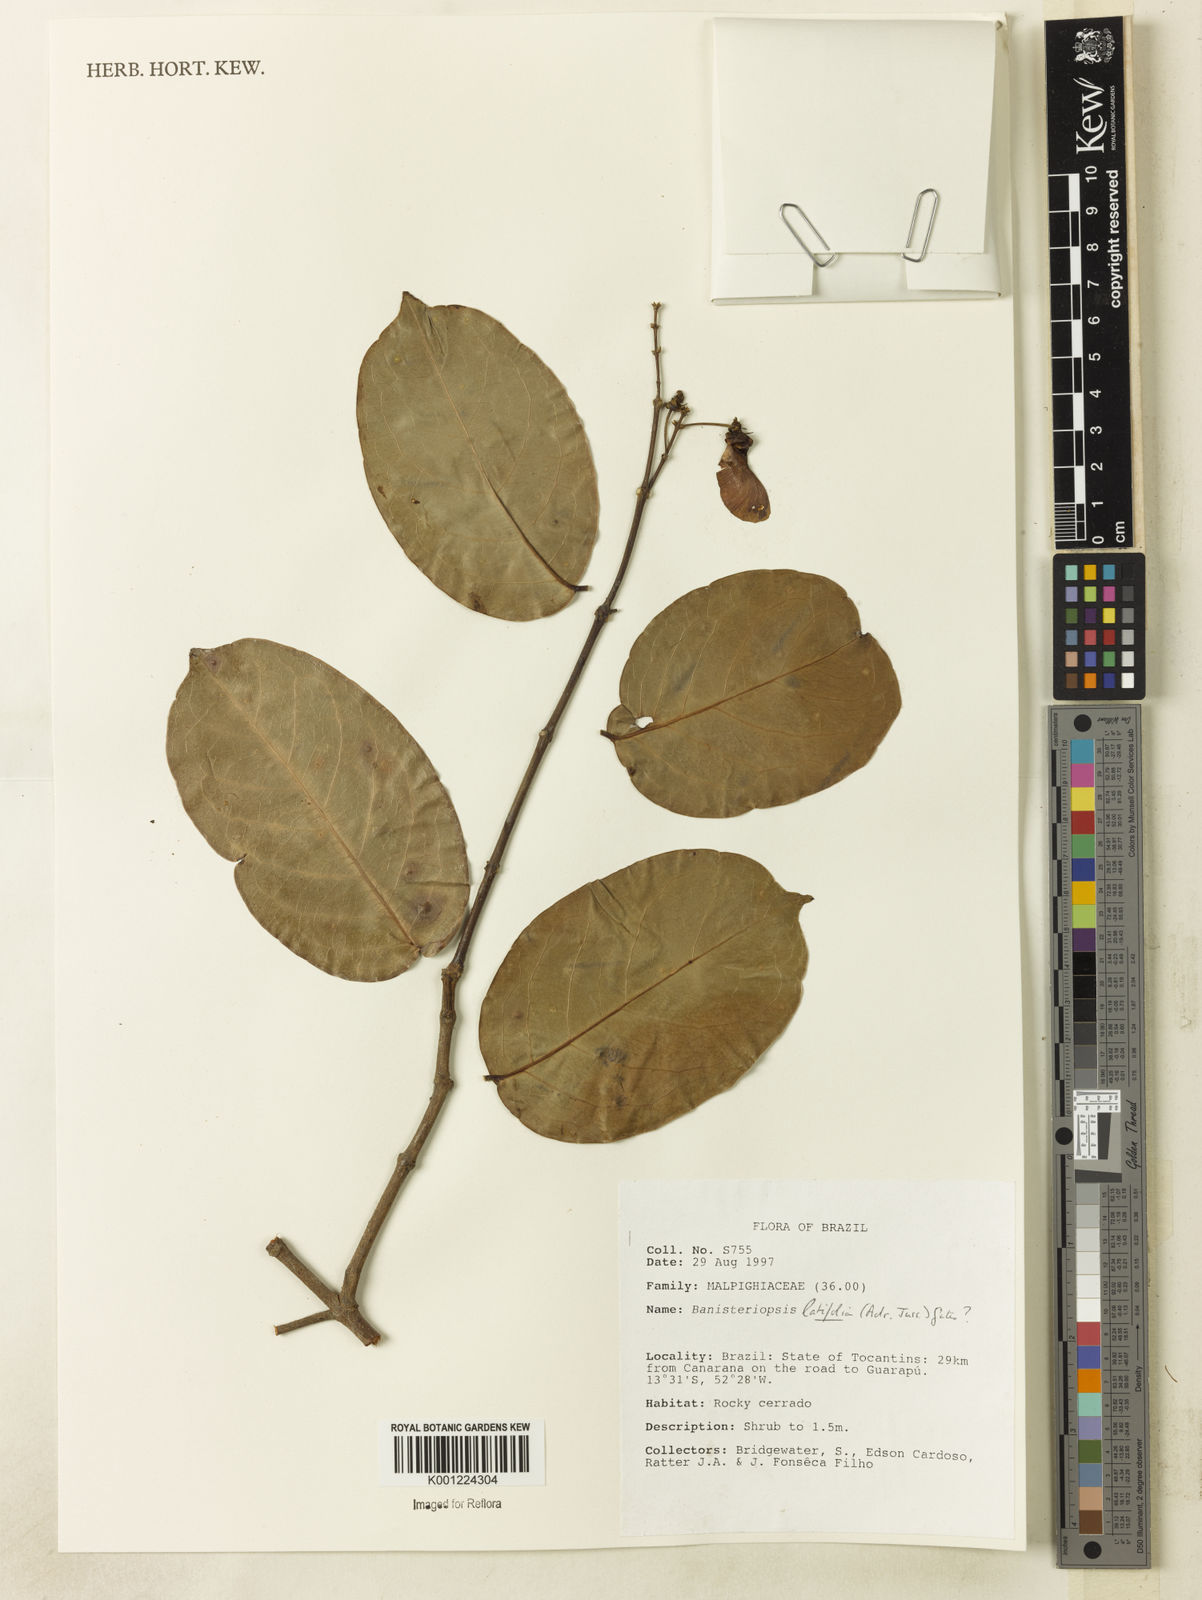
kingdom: Plantae
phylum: Tracheophyta
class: Magnoliopsida
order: Malpighiales
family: Malpighiaceae
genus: Banisteriopsis
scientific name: Banisteriopsis latifolia
